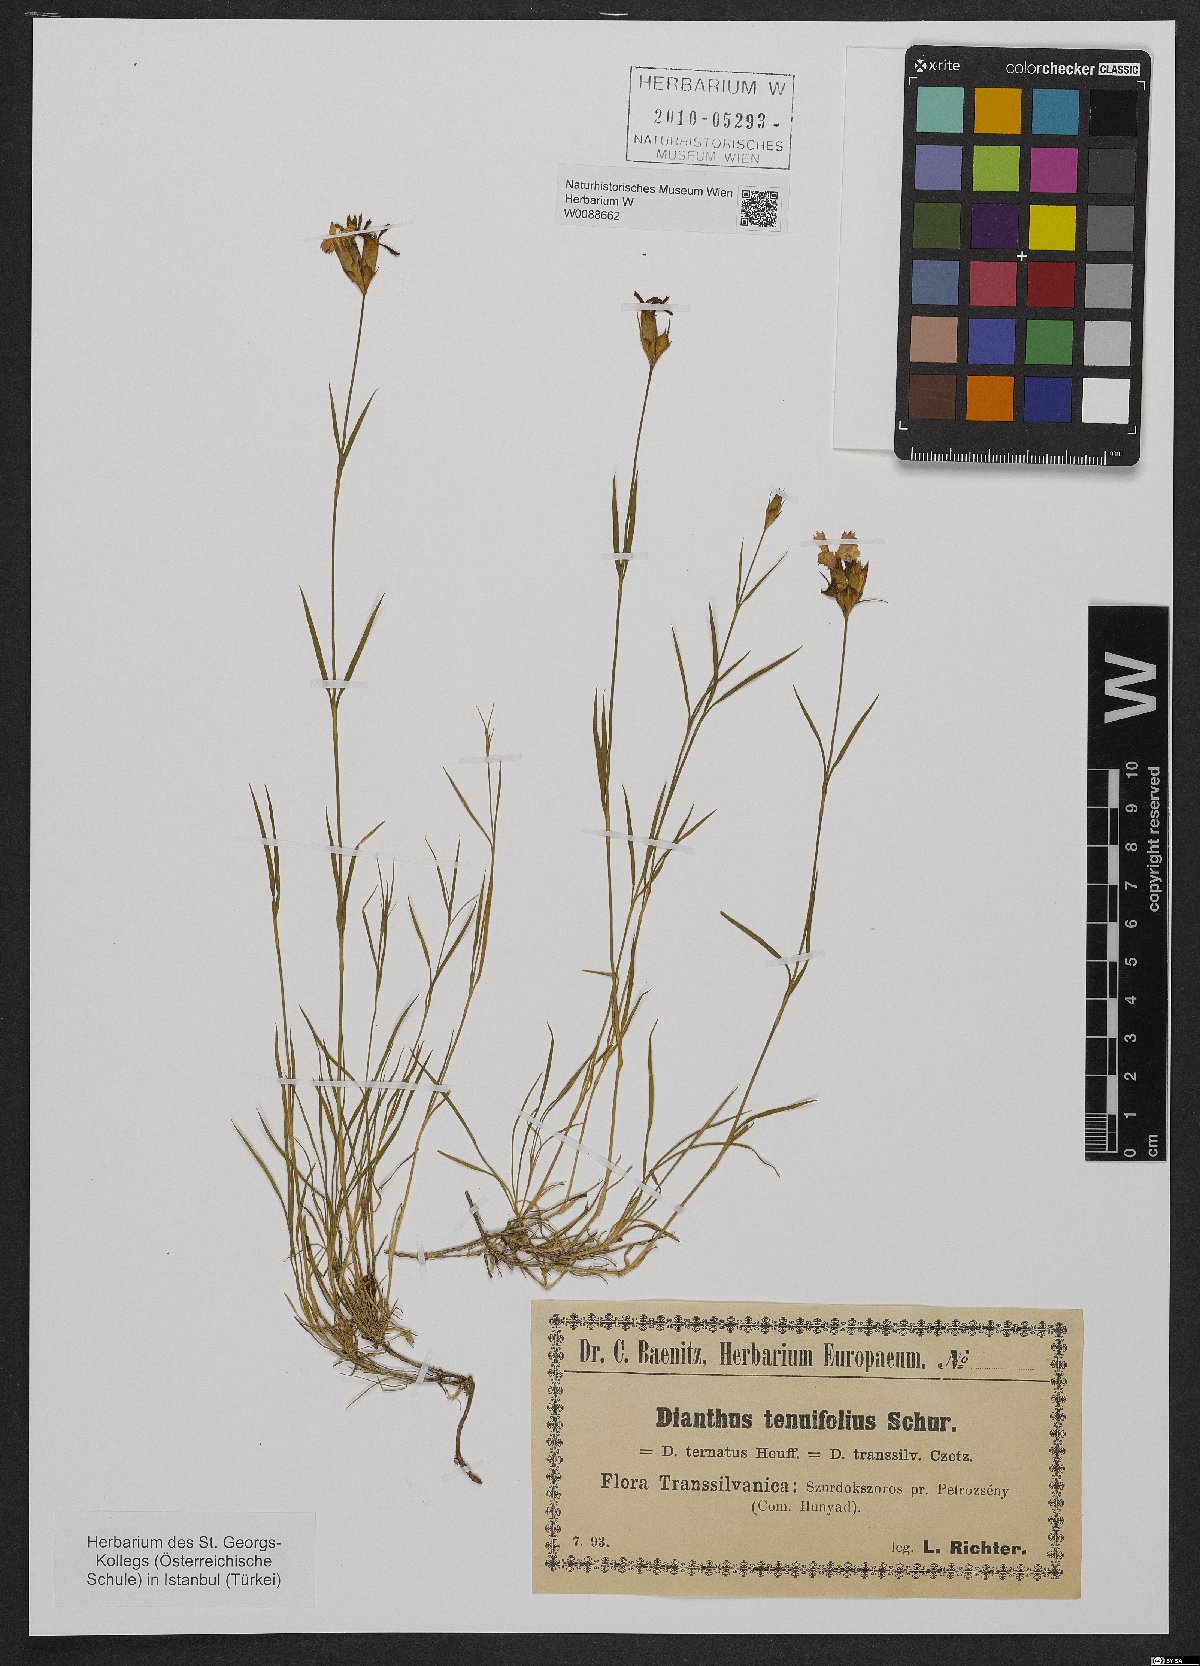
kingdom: Plantae
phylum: Tracheophyta
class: Magnoliopsida
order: Caryophyllales
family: Caryophyllaceae
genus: Dianthus
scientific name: Dianthus carthusianorum
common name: Carthusian pink
